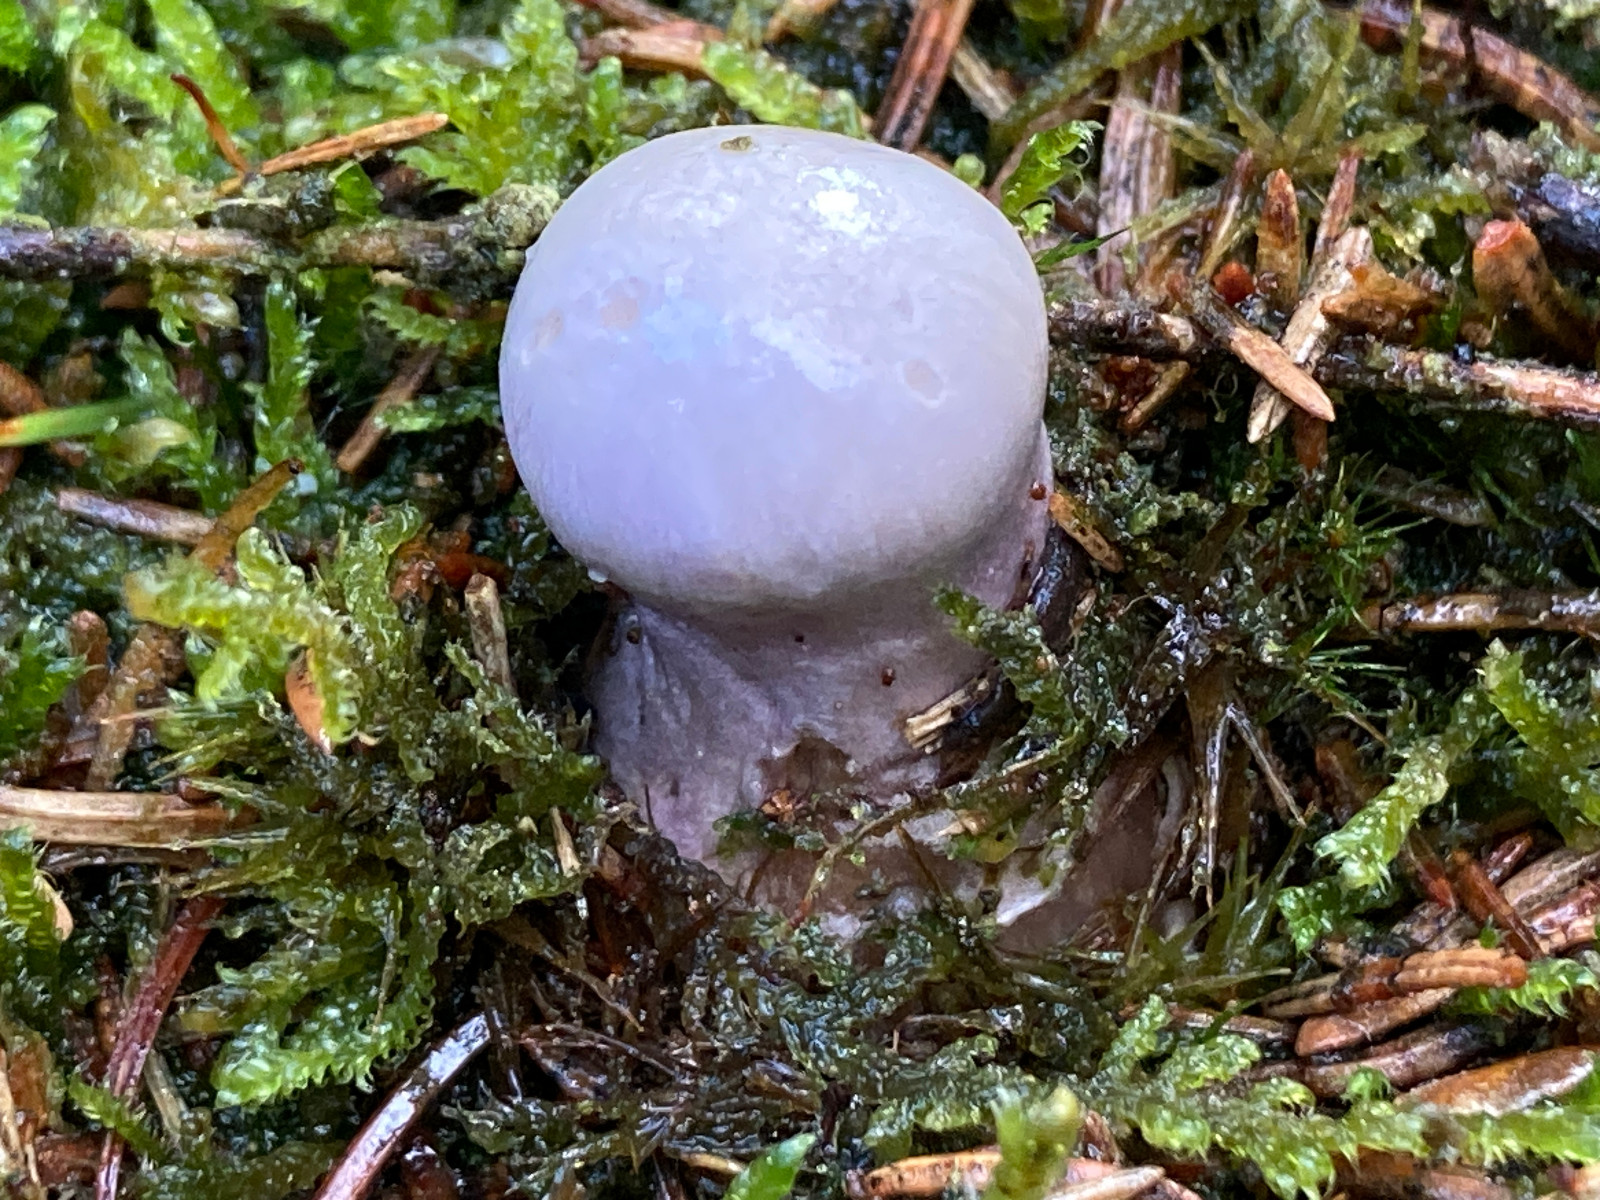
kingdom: Fungi
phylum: Basidiomycota
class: Agaricomycetes
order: Agaricales
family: Cortinariaceae
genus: Cortinarius
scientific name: Cortinarius traganus
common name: safrankødet slørhat
